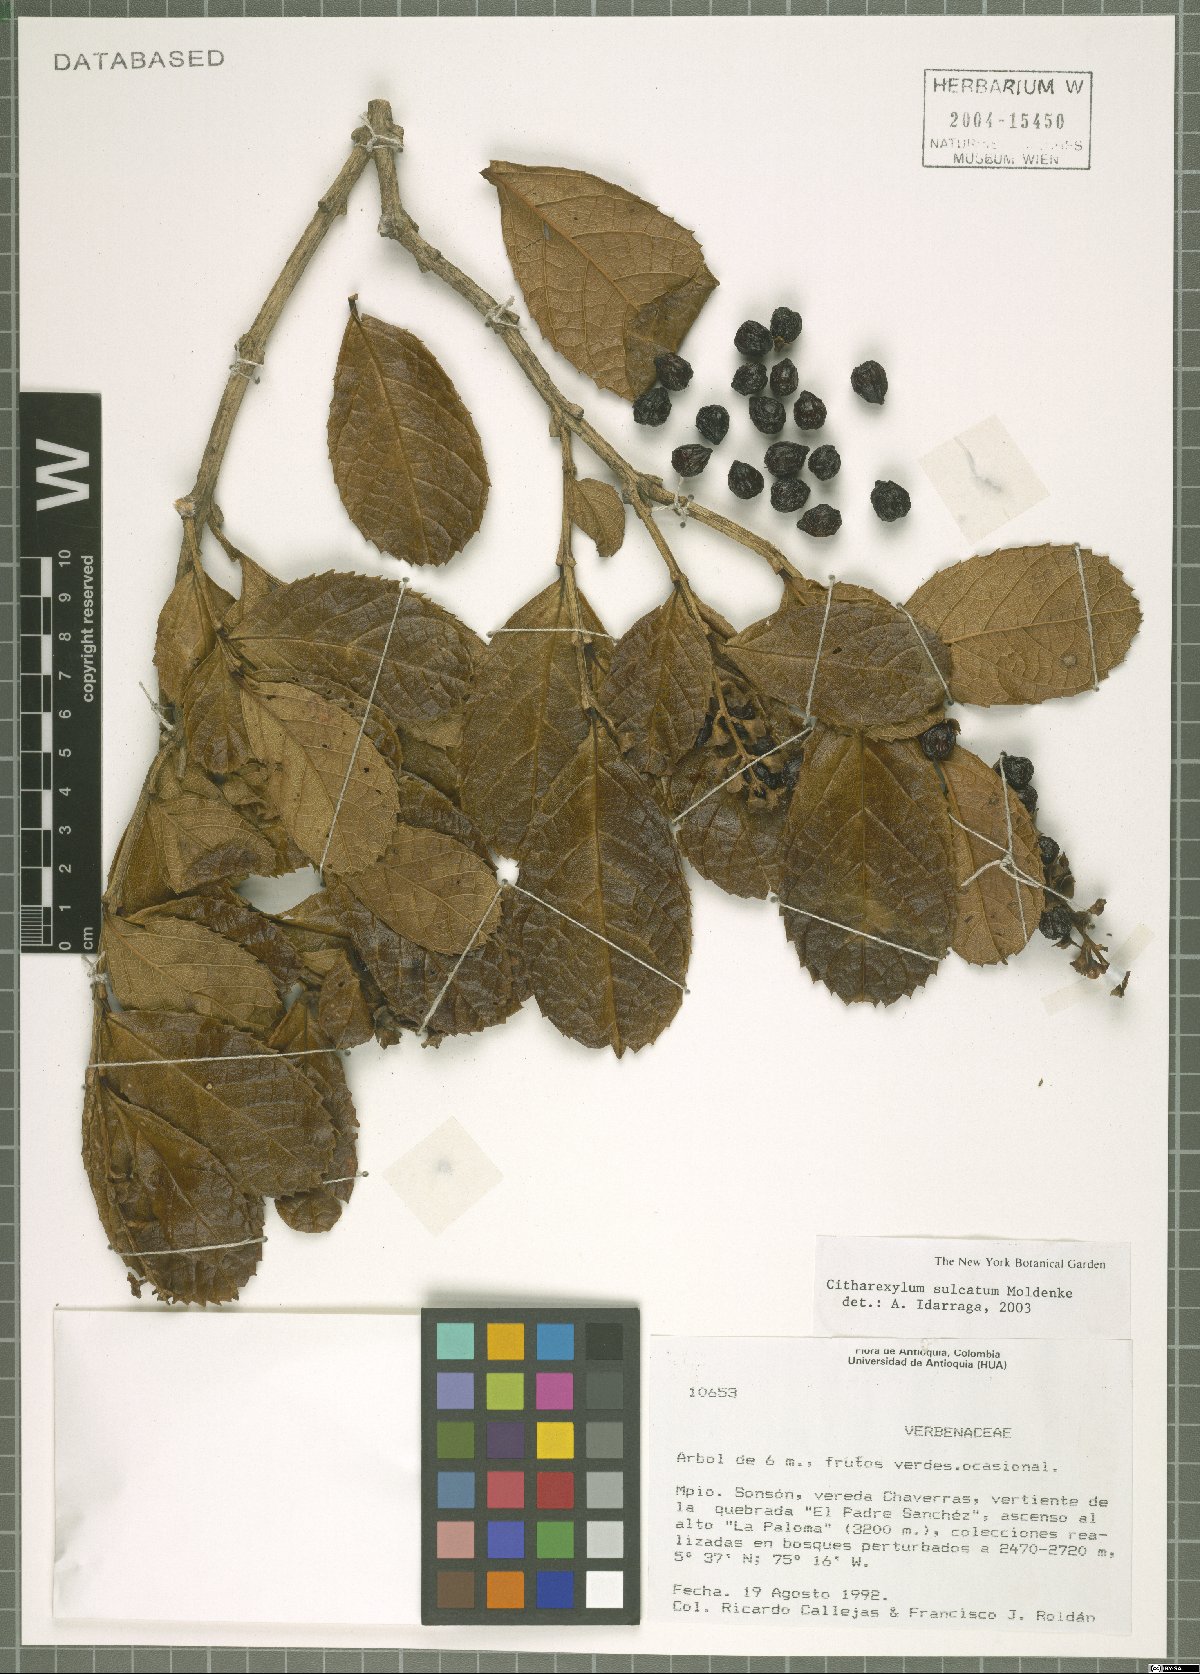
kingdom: Plantae
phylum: Tracheophyta
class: Magnoliopsida
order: Lamiales
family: Verbenaceae
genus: Citharexylum
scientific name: Citharexylum reticulatum
